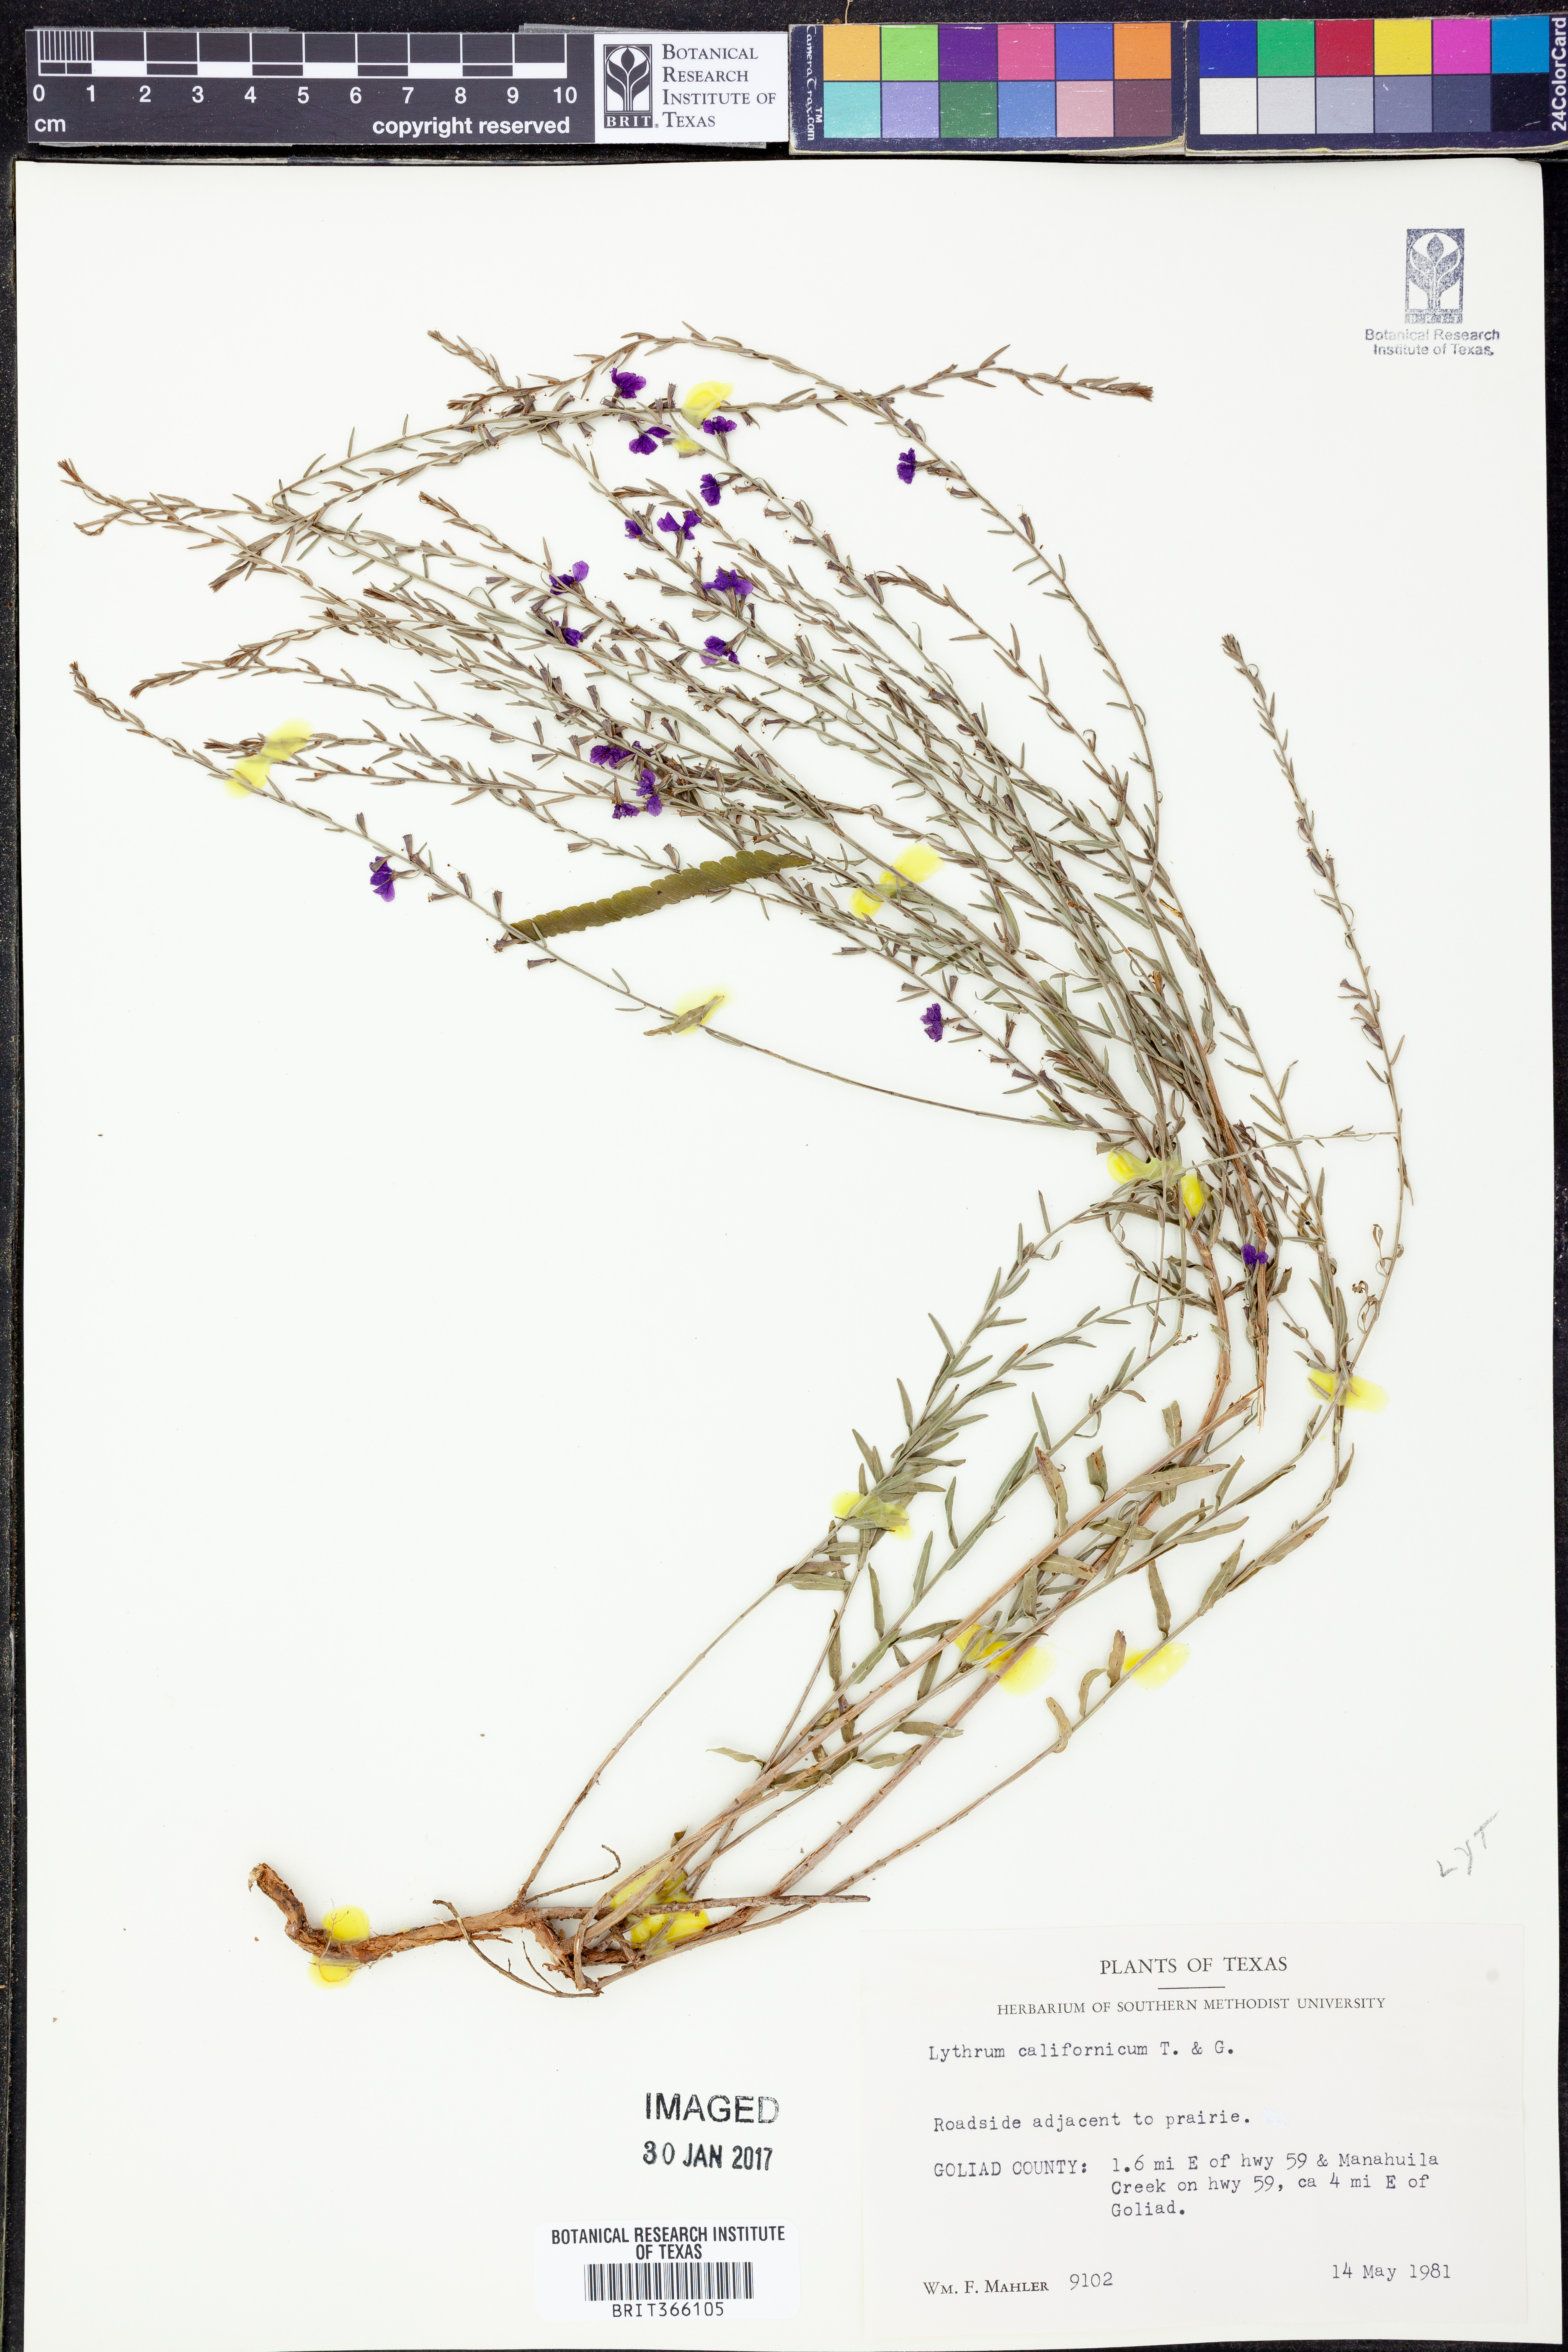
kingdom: Plantae
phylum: Tracheophyta
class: Magnoliopsida
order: Myrtales
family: Lythraceae
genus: Lythrum
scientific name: Lythrum californicum
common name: California loosestrife
